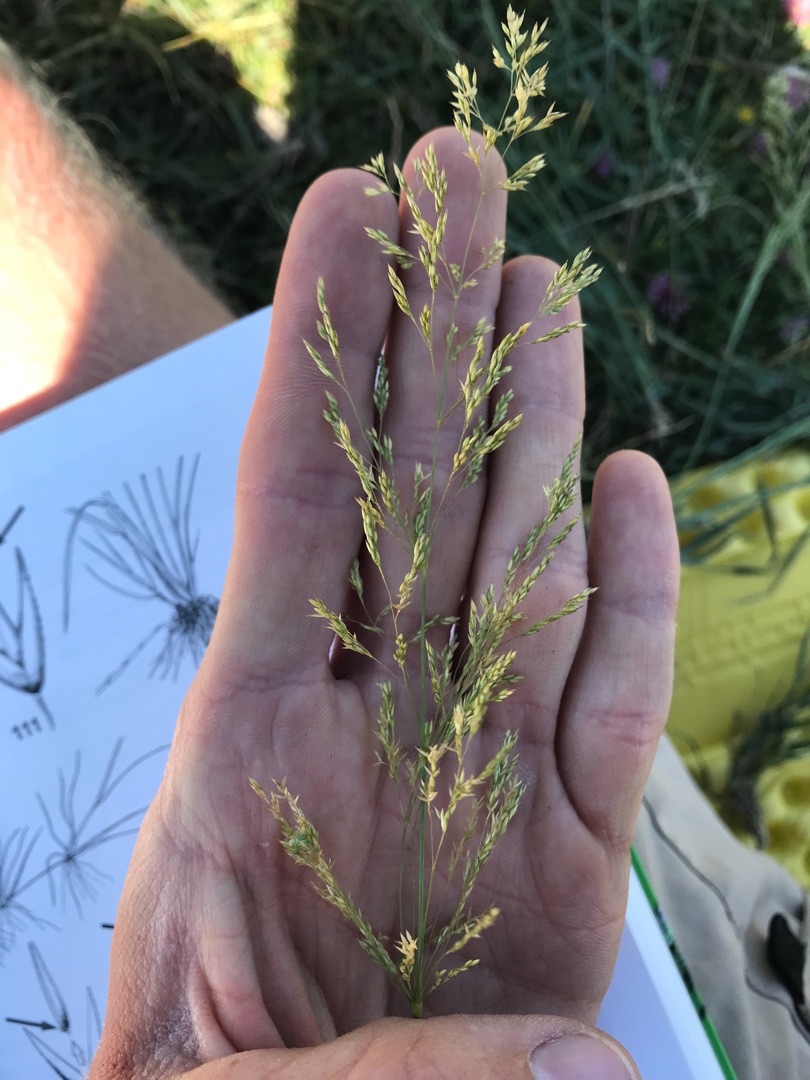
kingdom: Plantae
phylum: Tracheophyta
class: Liliopsida
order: Poales
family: Poaceae
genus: Agrostis
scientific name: Agrostis stolonifera
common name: Kryb-hvene
